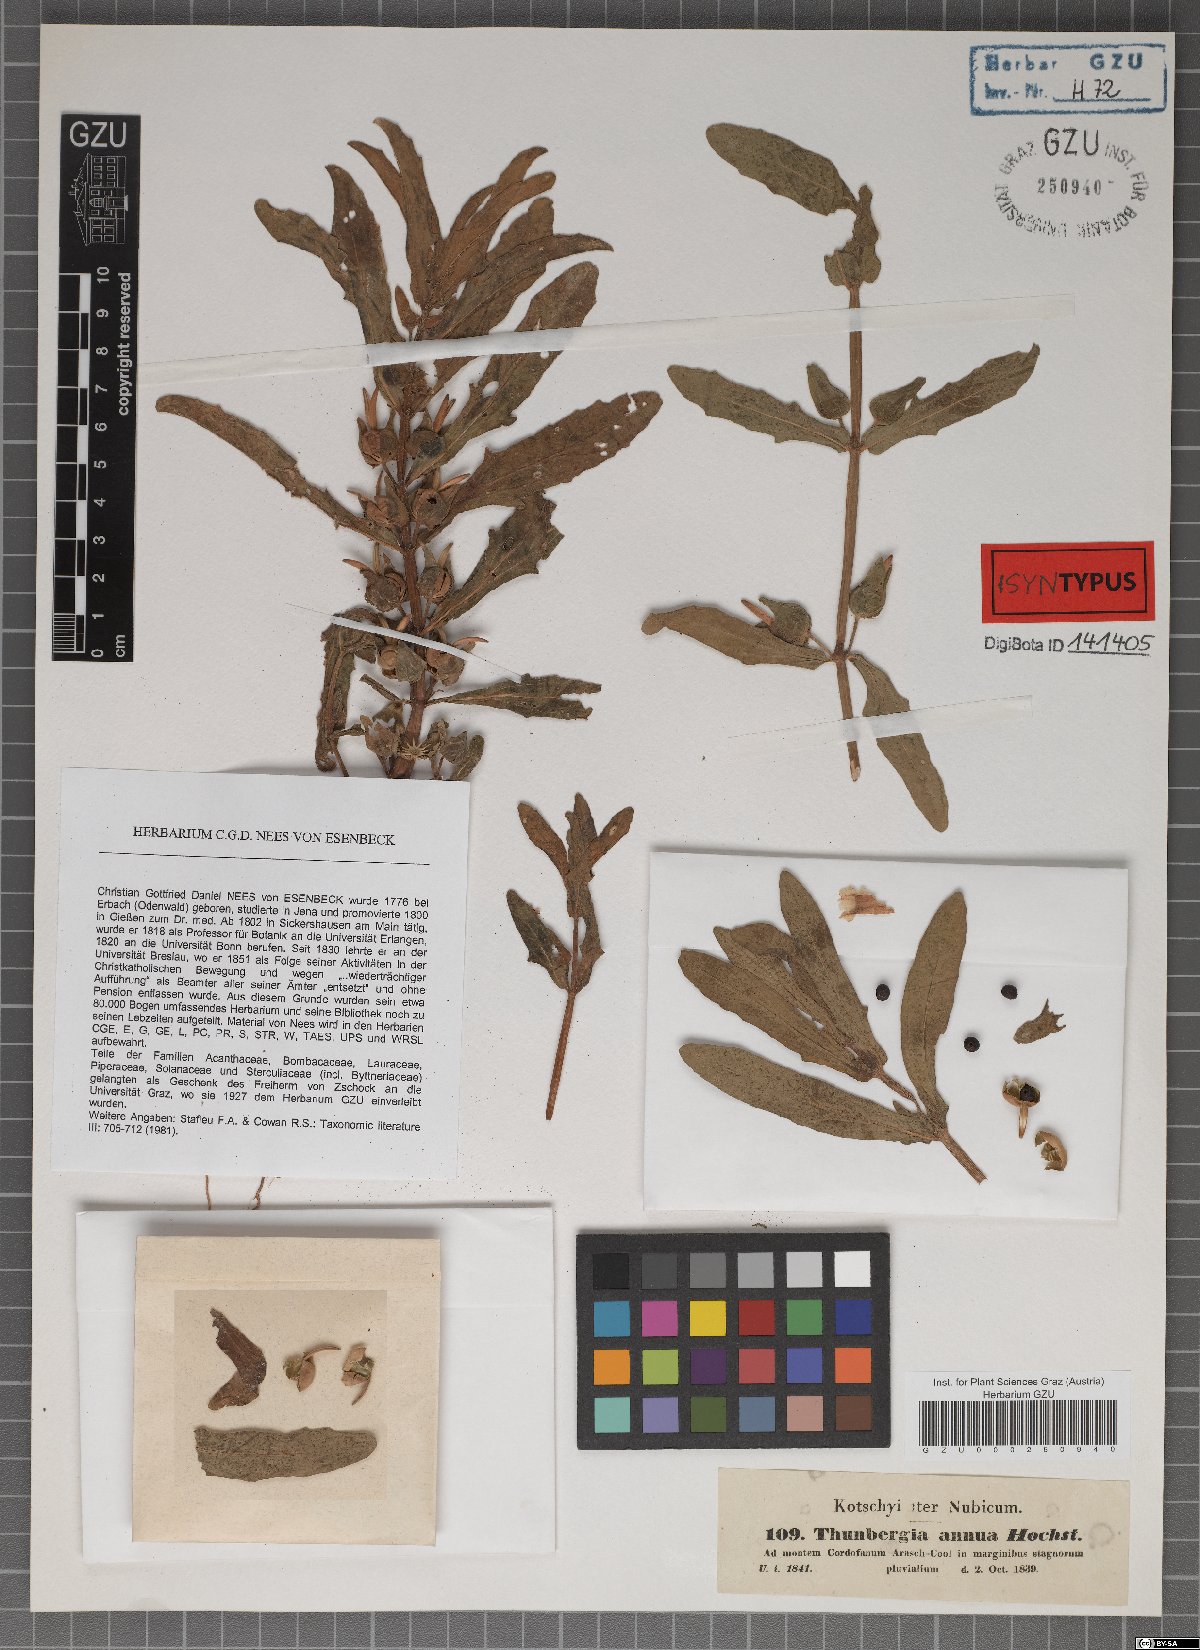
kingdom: Plantae
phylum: Tracheophyta
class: Magnoliopsida
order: Lamiales
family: Acanthaceae
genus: Thunbergia
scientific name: Thunbergia annua
